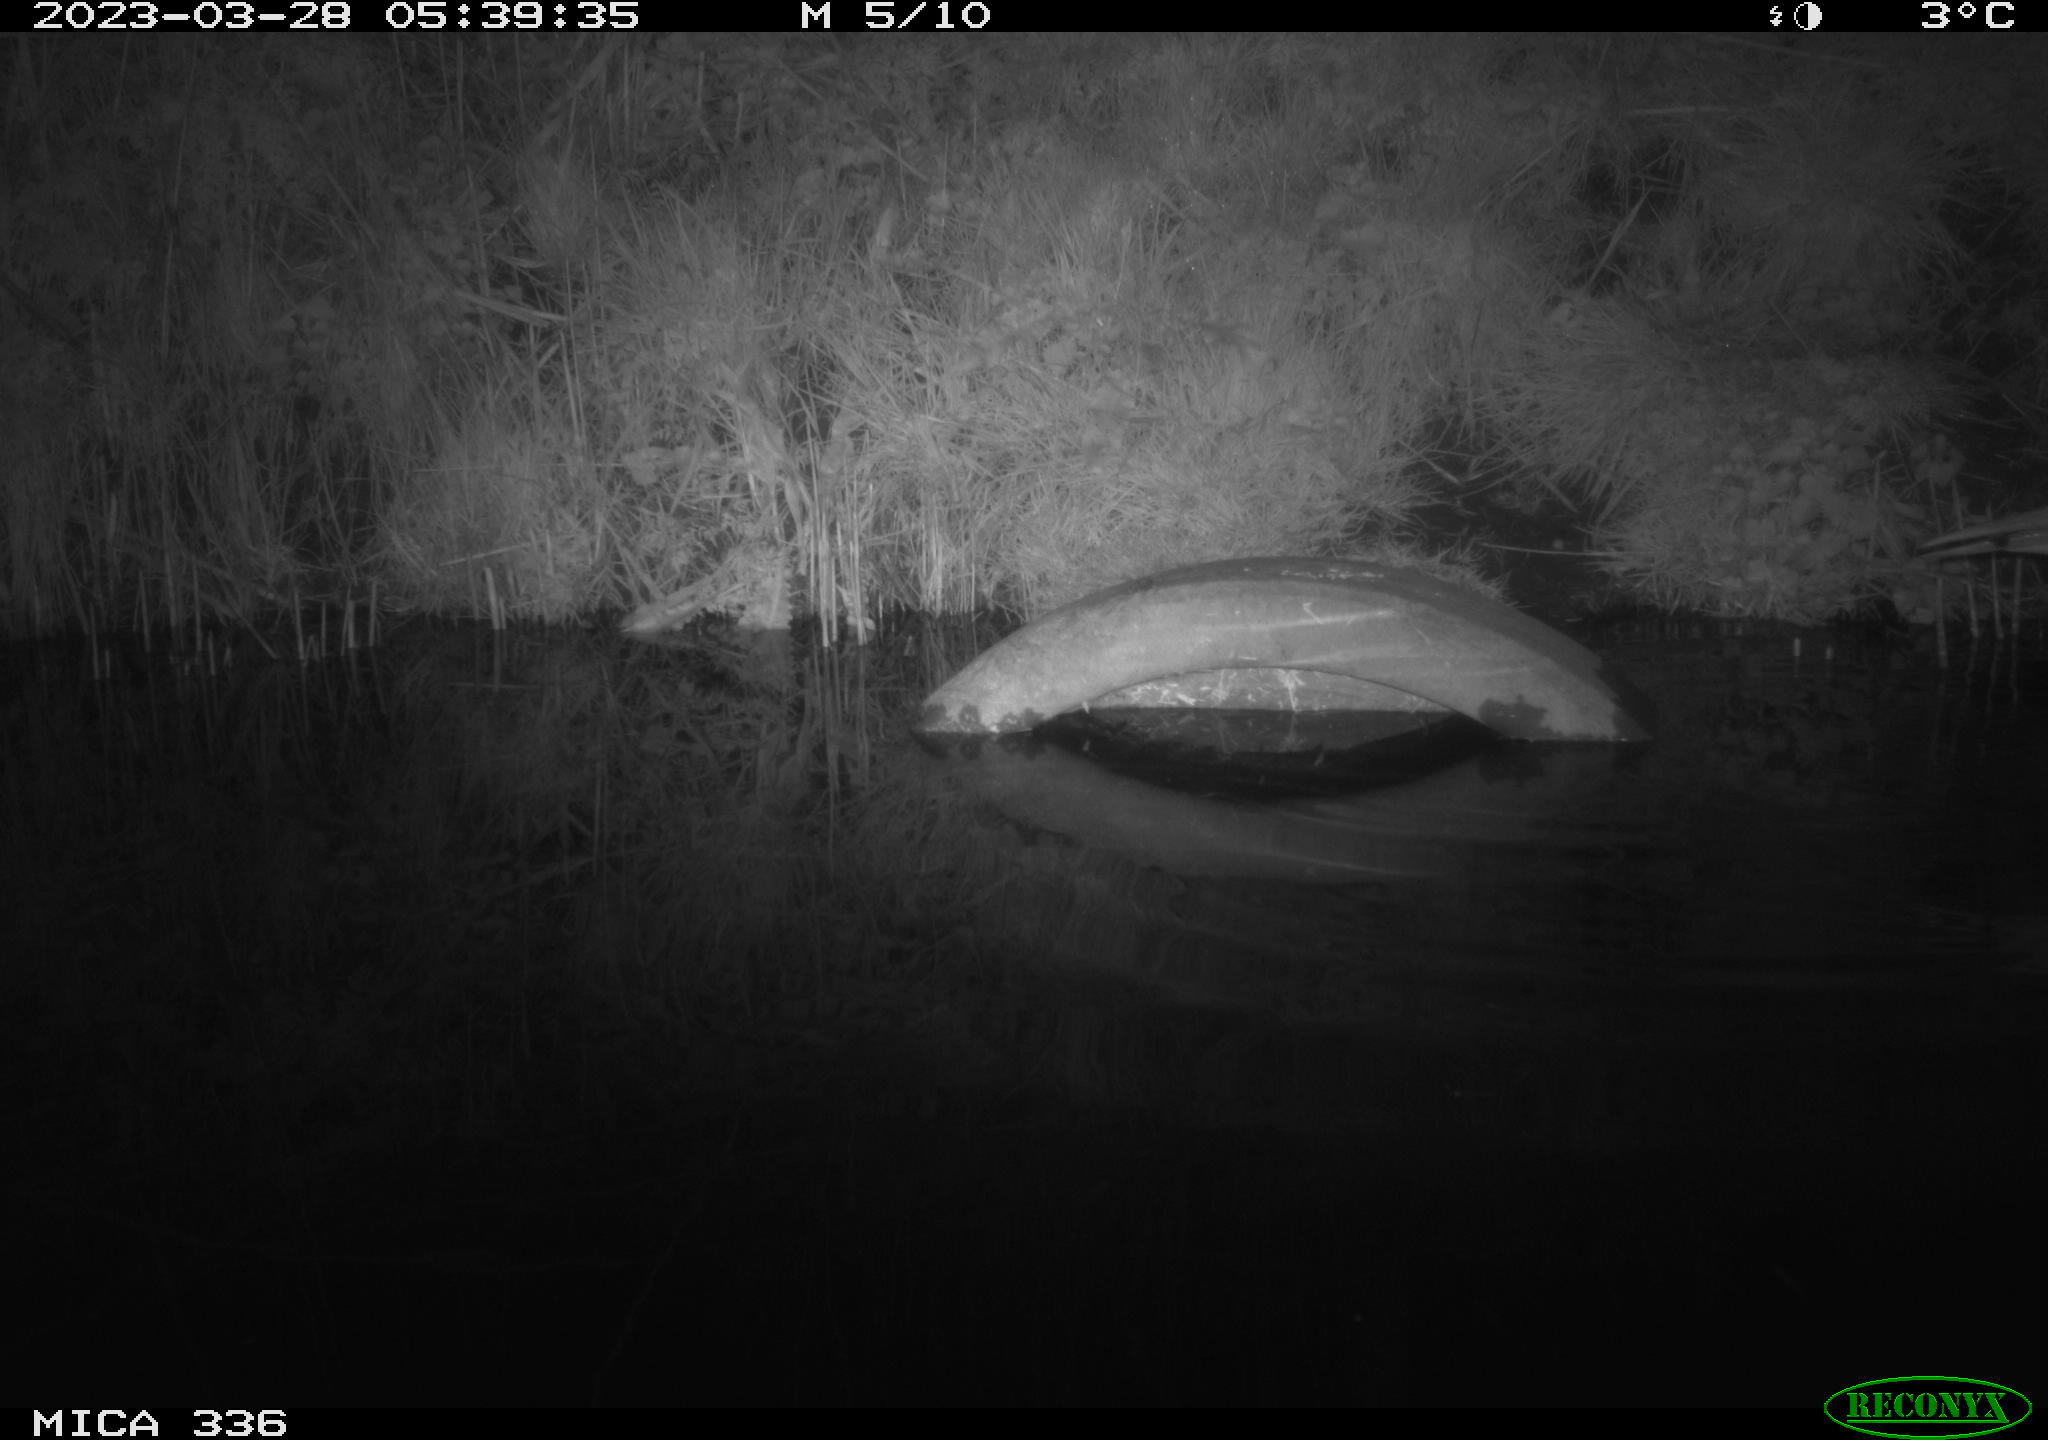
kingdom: Animalia
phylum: Chordata
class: Aves
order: Pelecaniformes
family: Ardeidae
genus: Ardea
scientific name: Ardea cinerea
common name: Grey heron
